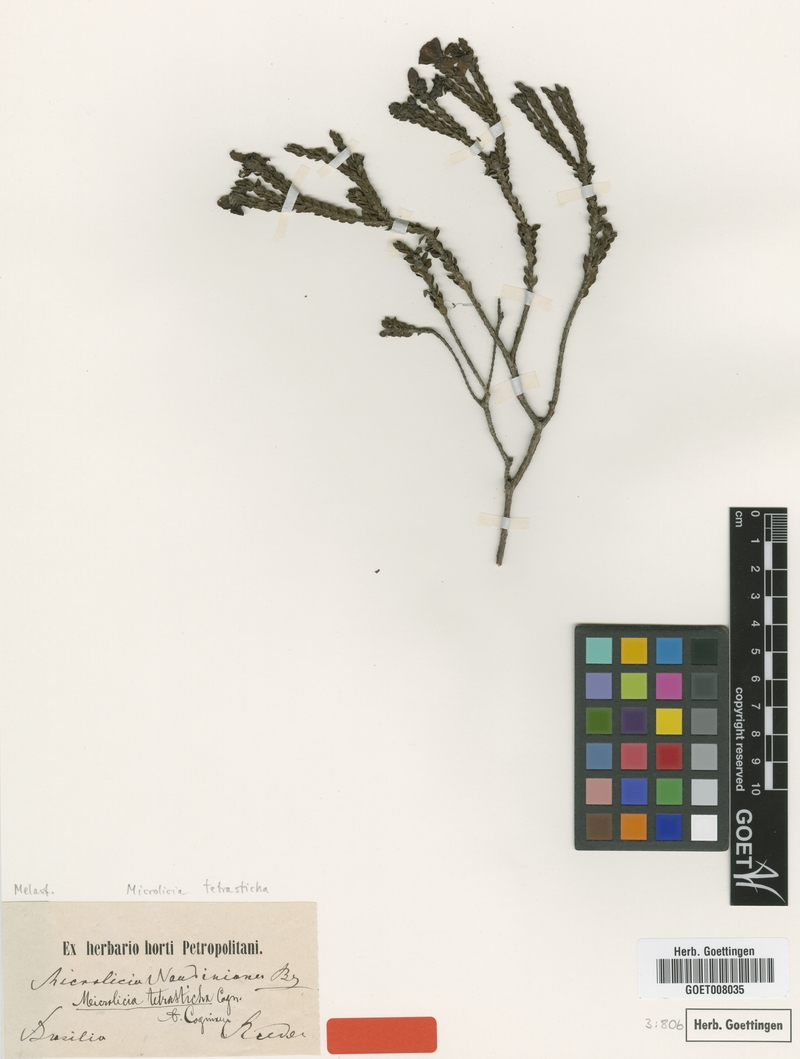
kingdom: Plantae
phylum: Tracheophyta
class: Magnoliopsida
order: Myrtales
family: Melastomataceae
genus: Microlicia
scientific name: Microlicia tetrasticha
